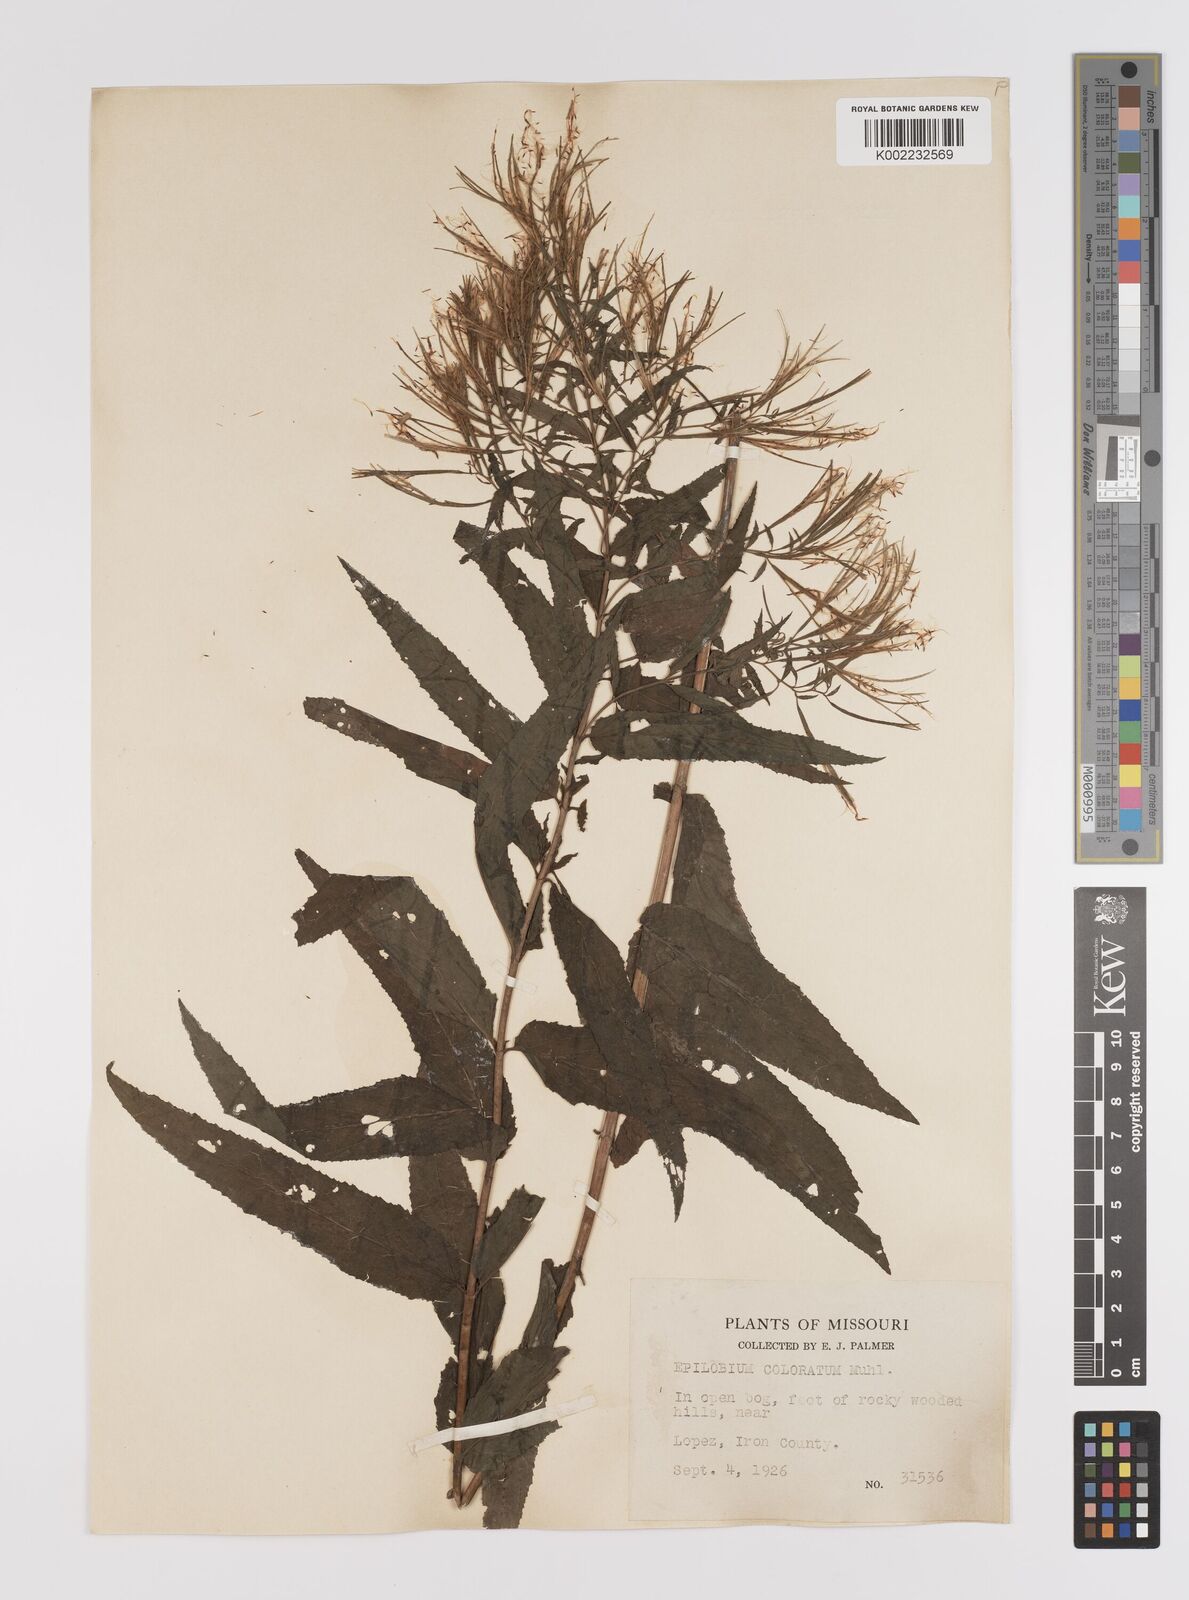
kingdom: Plantae
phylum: Tracheophyta
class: Magnoliopsida
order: Myrtales
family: Onagraceae
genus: Epilobium
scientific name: Epilobium coloratum
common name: Bronze willowherb
